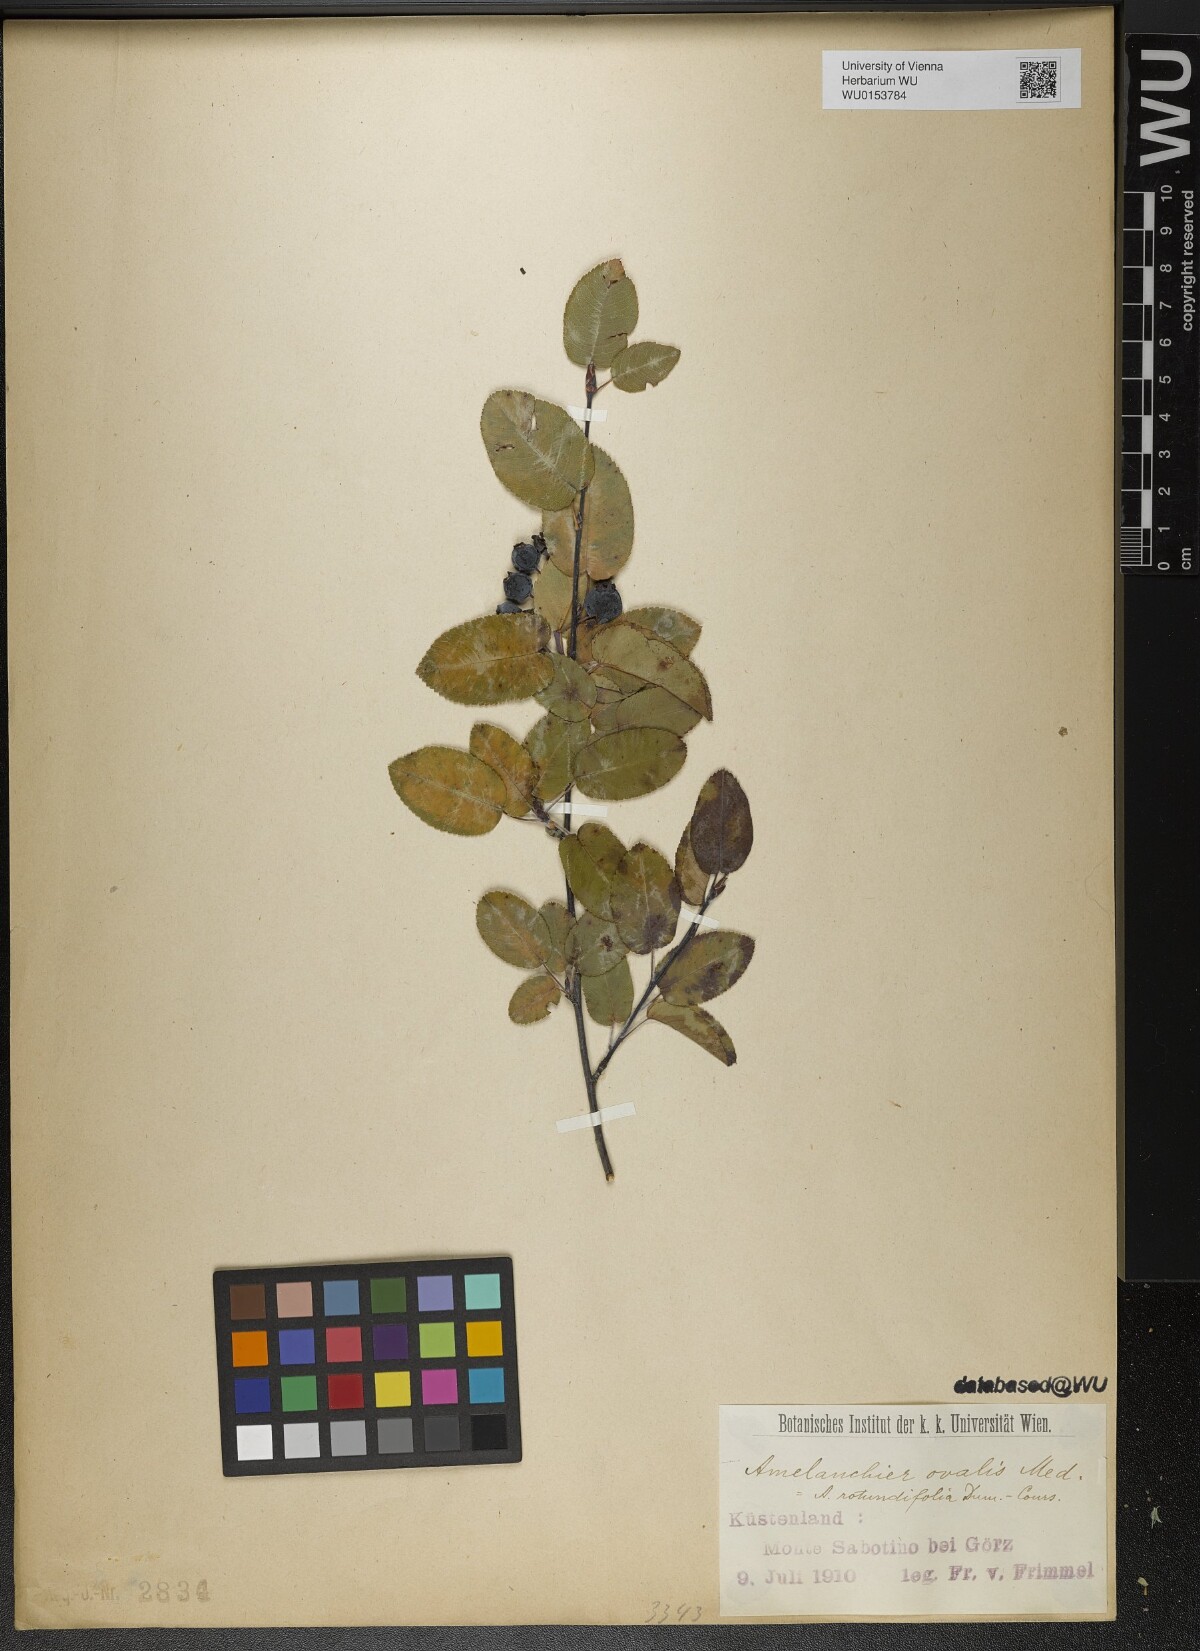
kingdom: Plantae
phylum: Tracheophyta
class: Magnoliopsida
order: Rosales
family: Rosaceae
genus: Amelanchier
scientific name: Amelanchier ovalis
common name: Serviceberry
